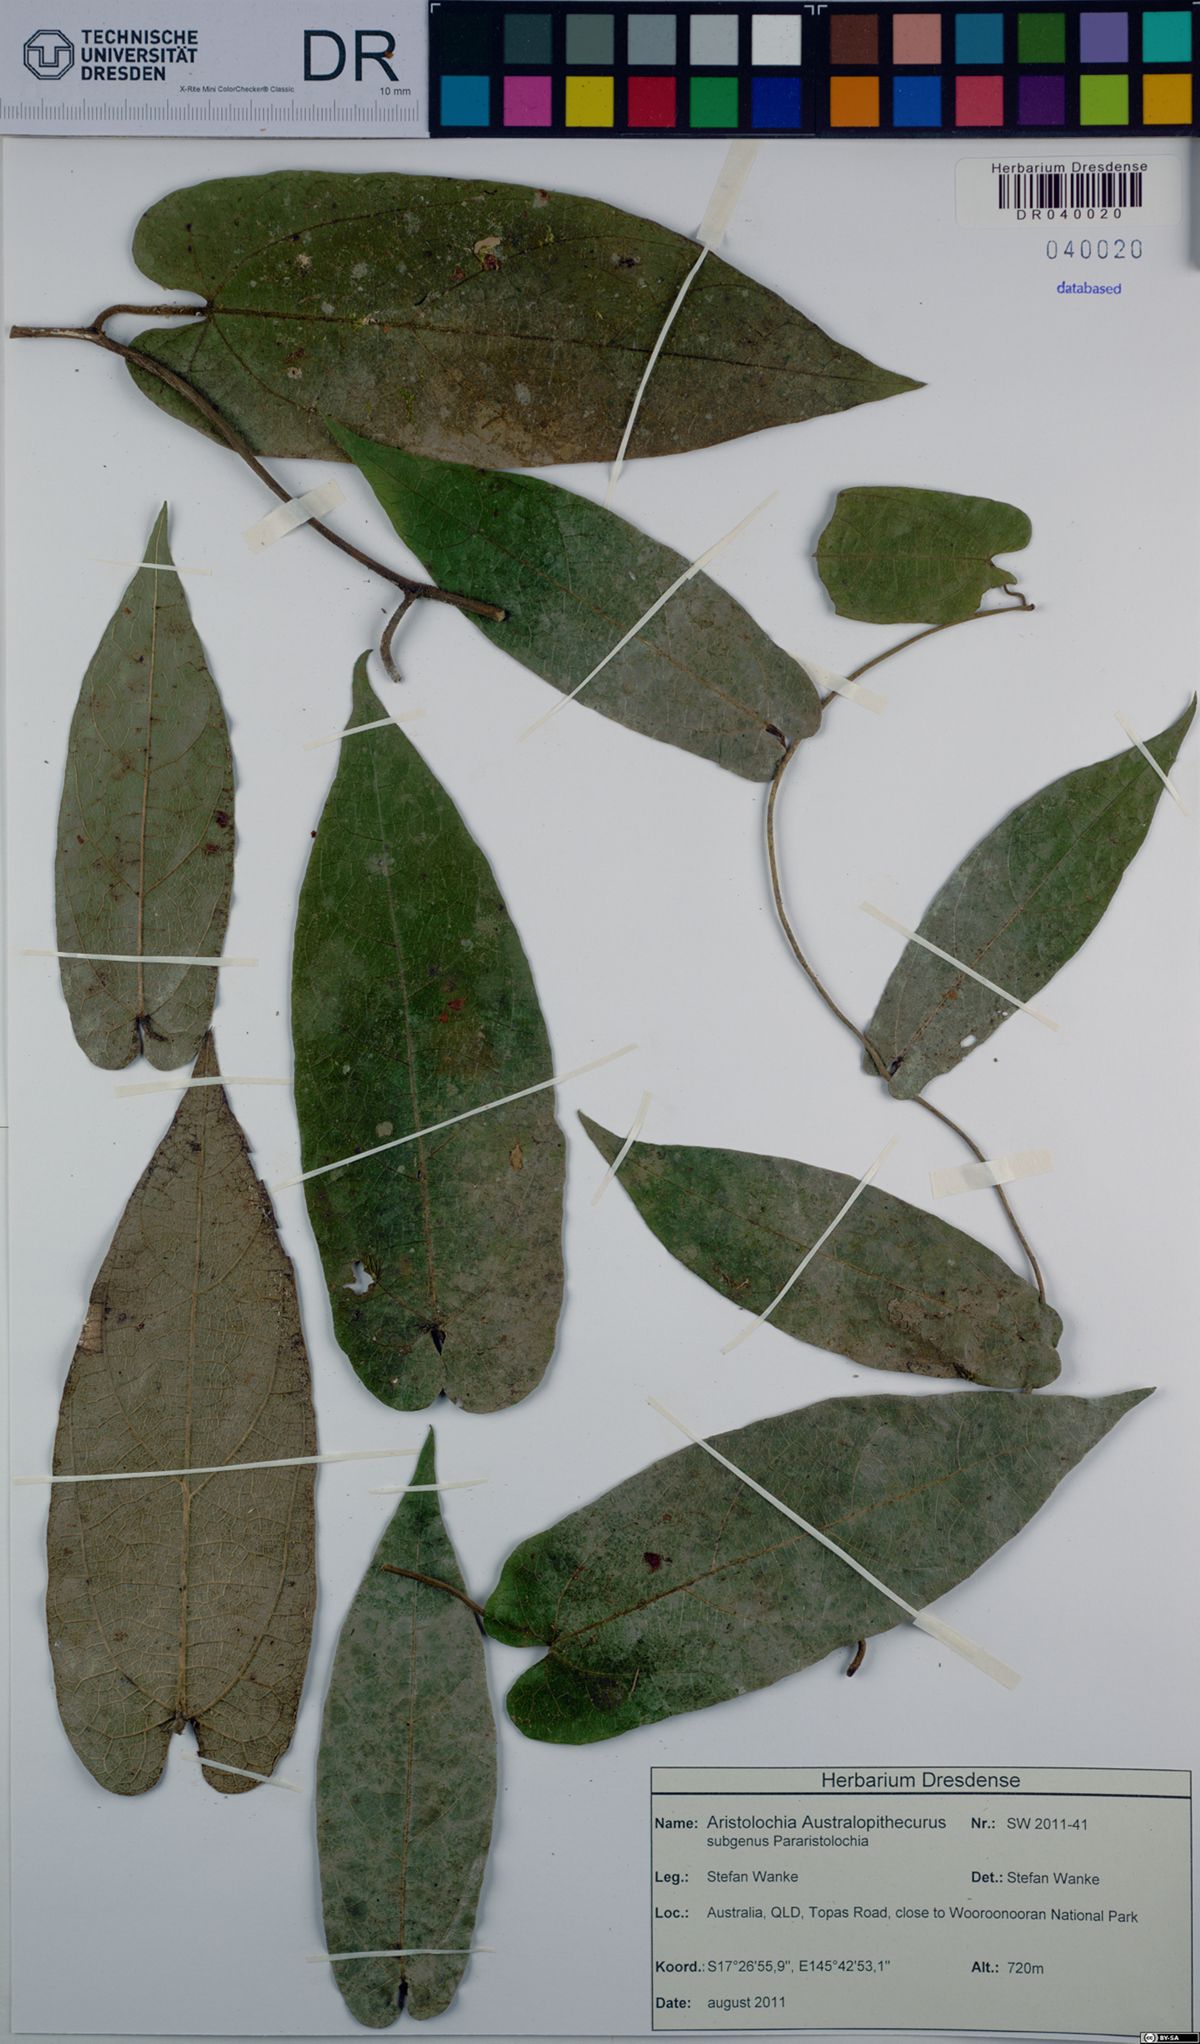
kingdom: Plantae
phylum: Tracheophyta
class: Magnoliopsida
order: Piperales
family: Aristolochiaceae
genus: Aristolochia
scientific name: Aristolochia australopithecurus
